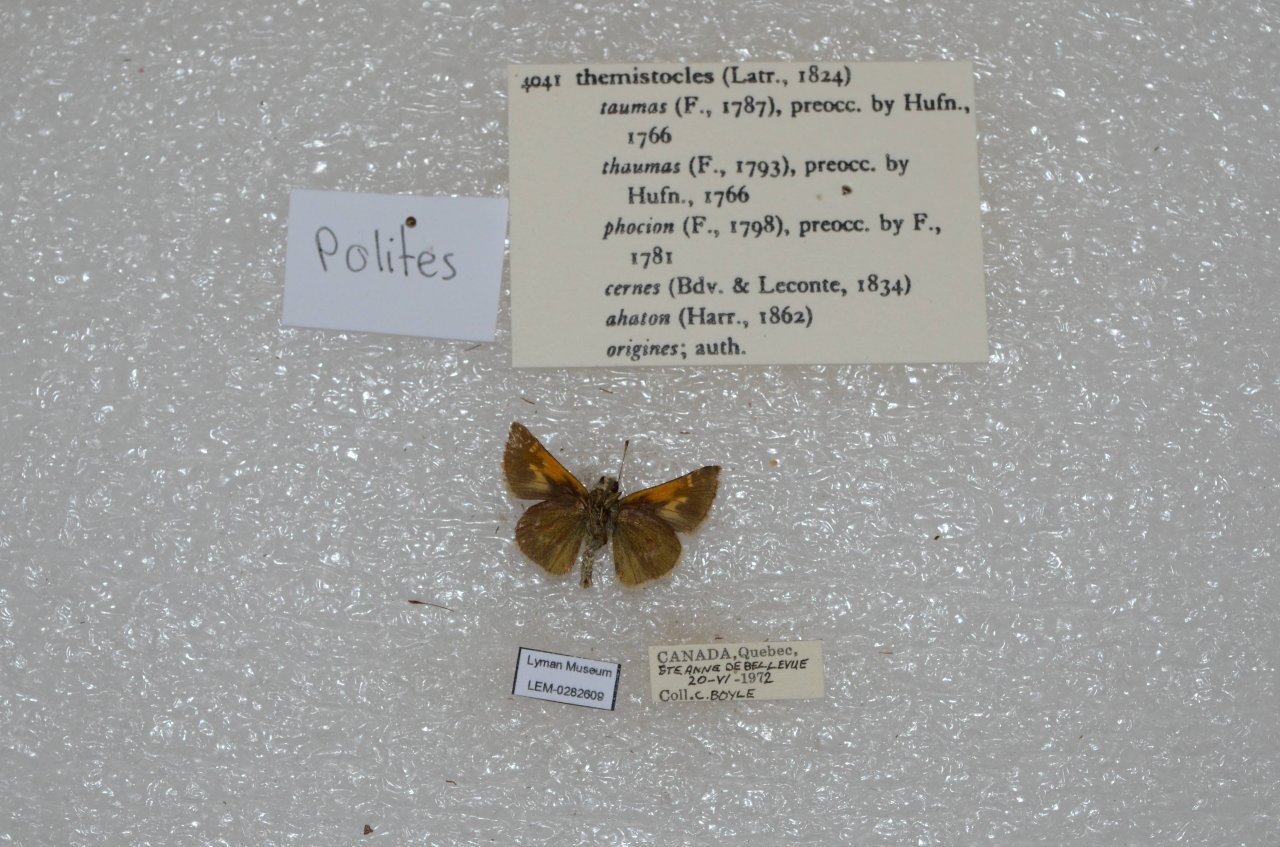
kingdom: Animalia
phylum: Arthropoda
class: Insecta
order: Lepidoptera
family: Hesperiidae
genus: Polites
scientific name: Polites themistocles
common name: Tawny-edged Skipper
